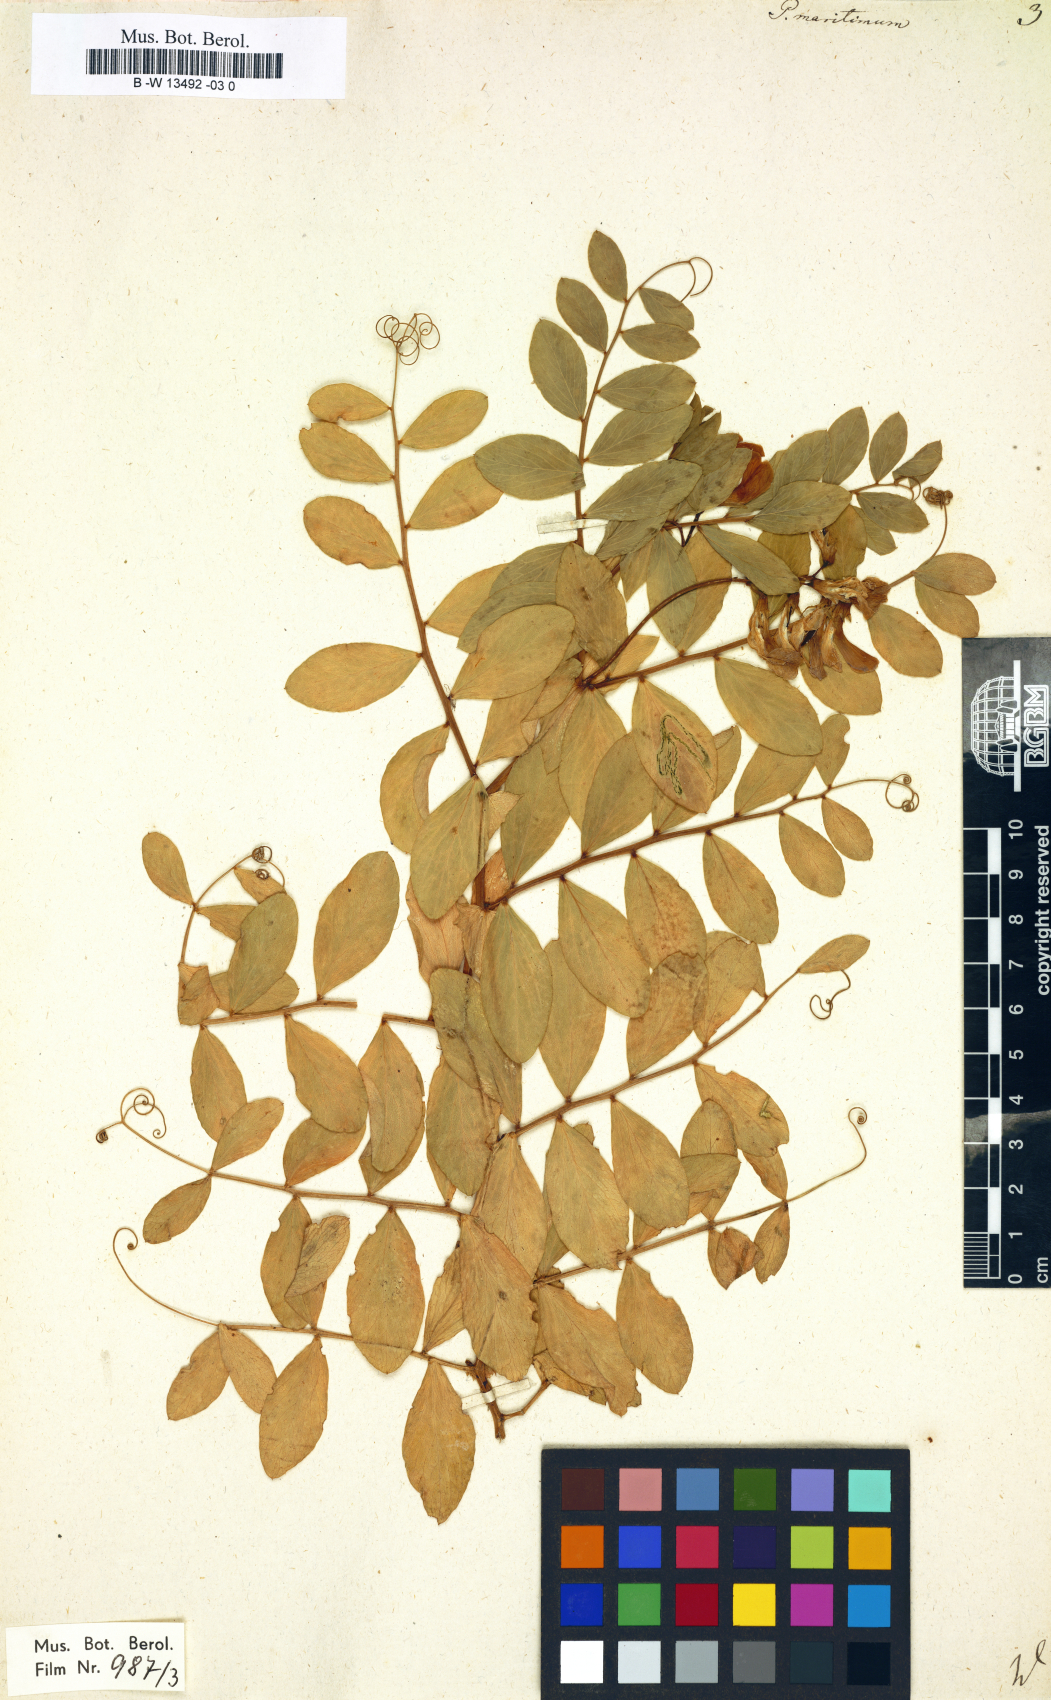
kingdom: Plantae
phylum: Tracheophyta
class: Magnoliopsida
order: Fabales
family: Fabaceae
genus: Lathyrus
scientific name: Lathyrus japonicus
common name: Sea pea
